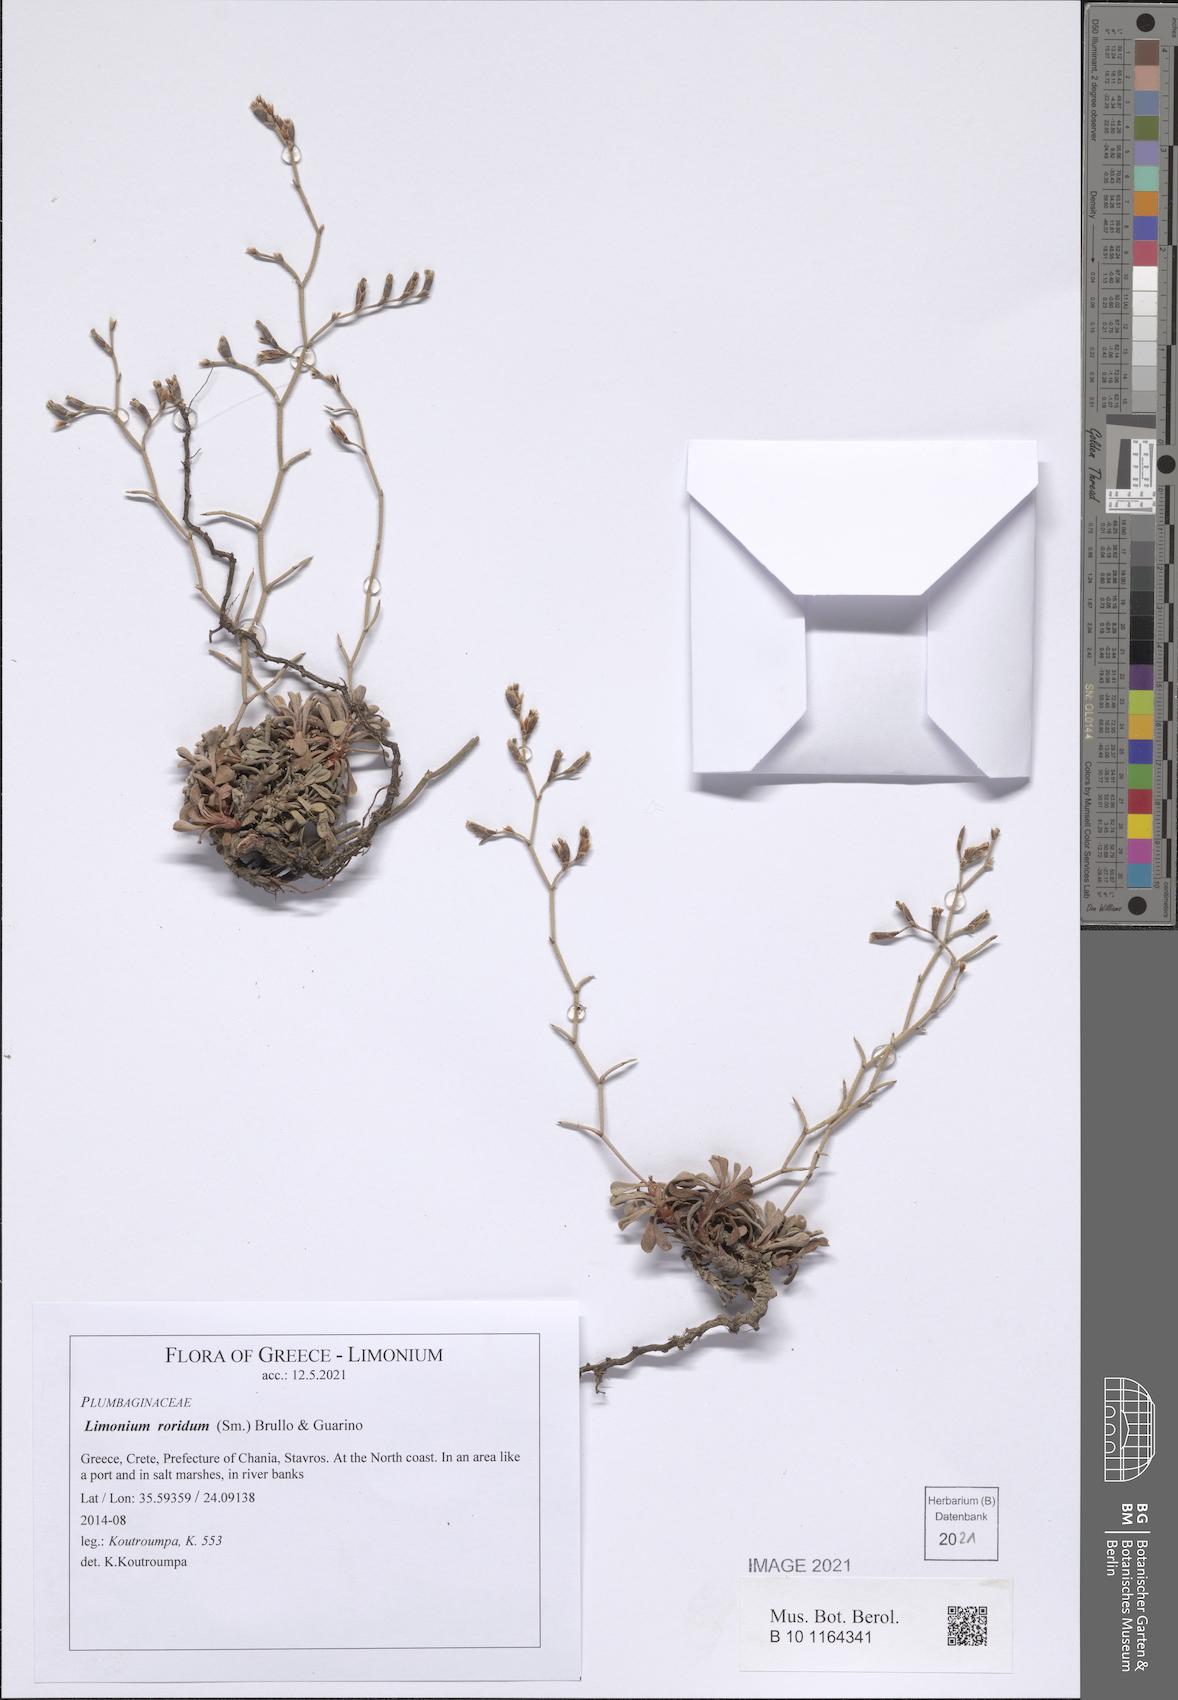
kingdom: Plantae
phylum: Tracheophyta
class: Magnoliopsida
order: Caryophyllales
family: Plumbaginaceae
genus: Limonium
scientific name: Limonium roridum
